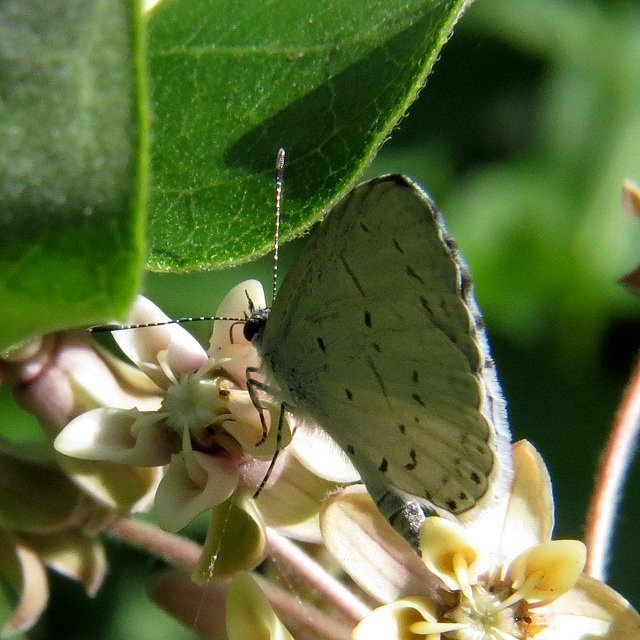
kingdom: Animalia
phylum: Arthropoda
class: Insecta
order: Lepidoptera
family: Lycaenidae
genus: Celastrina
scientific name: Celastrina
